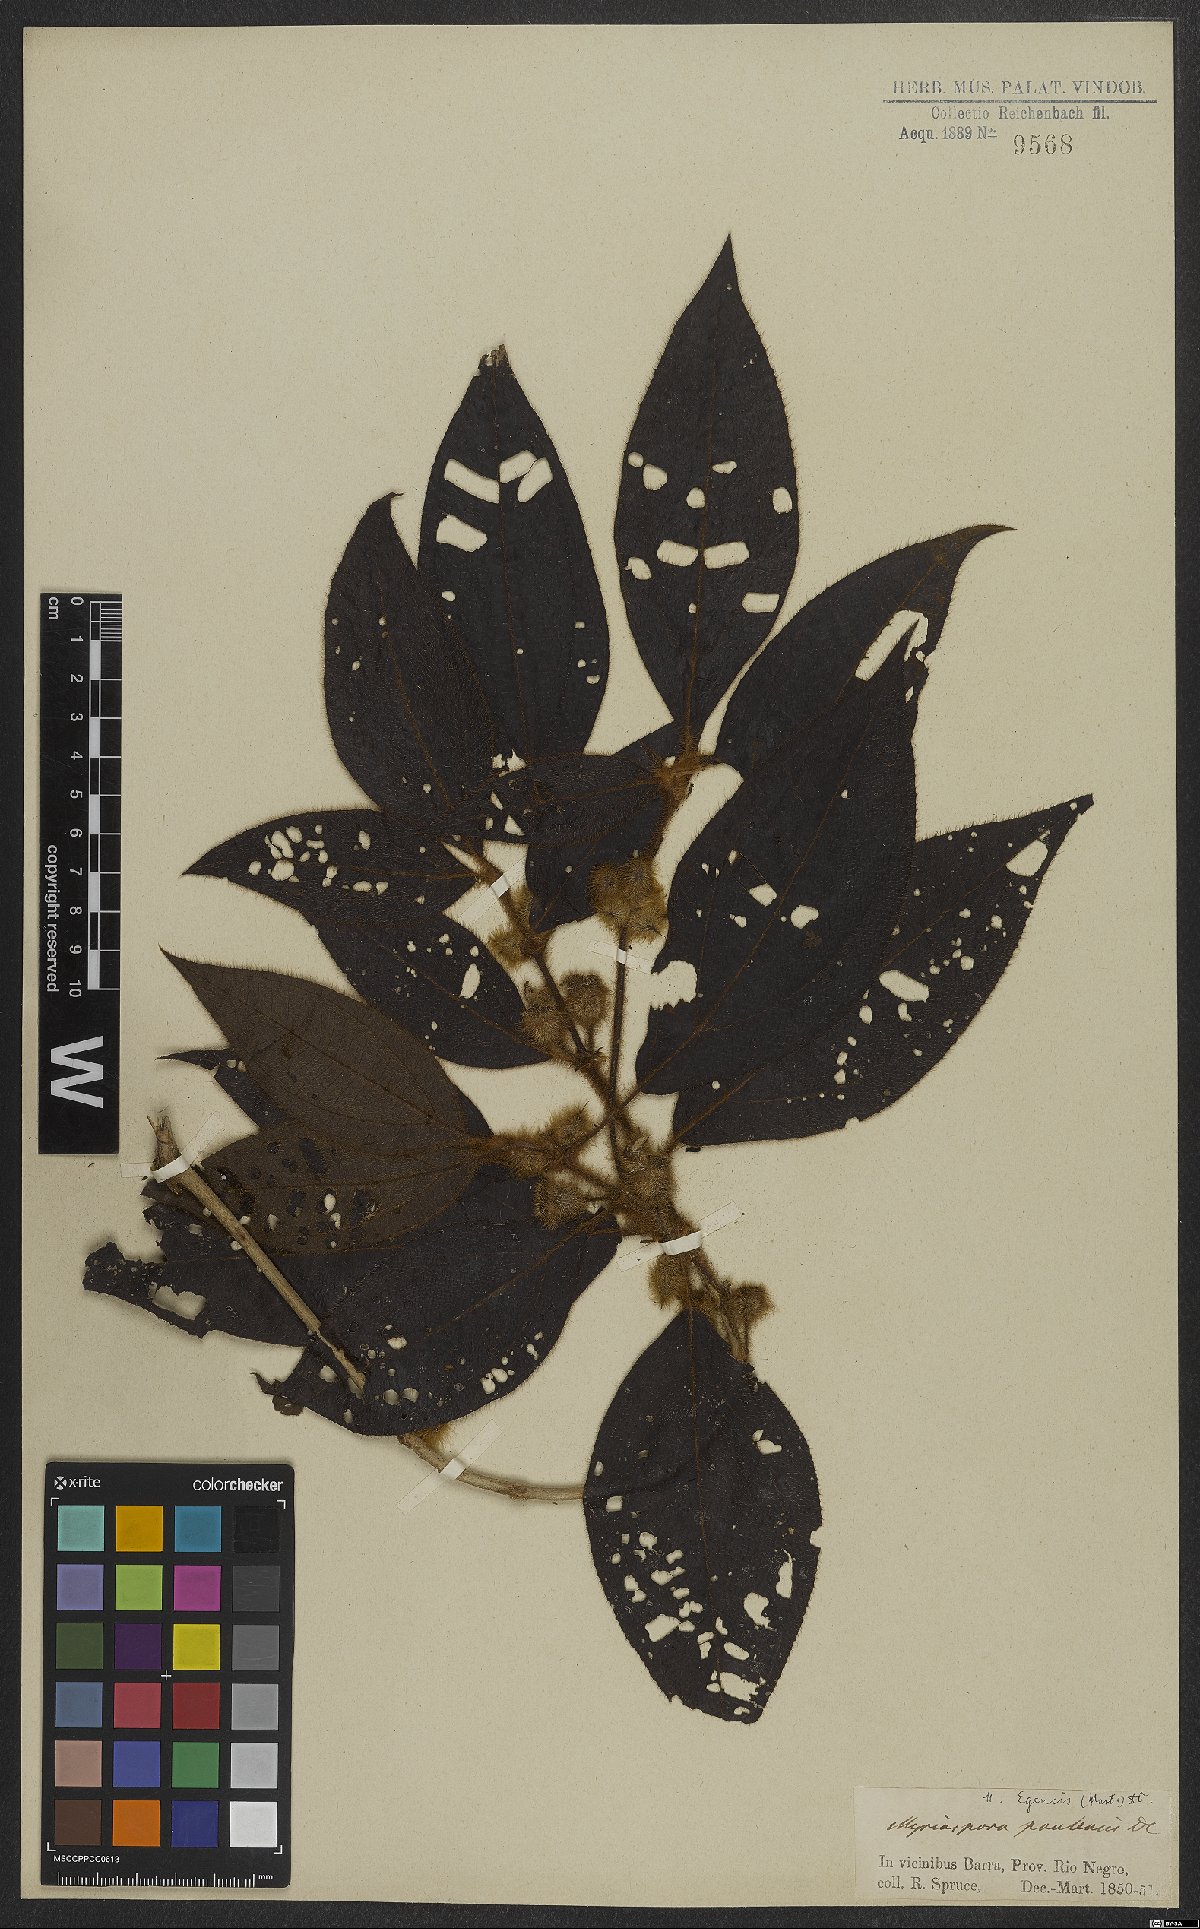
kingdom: Plantae
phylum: Tracheophyta
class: Magnoliopsida
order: Myrtales
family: Melastomataceae
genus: Bellucia
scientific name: Bellucia egensis
